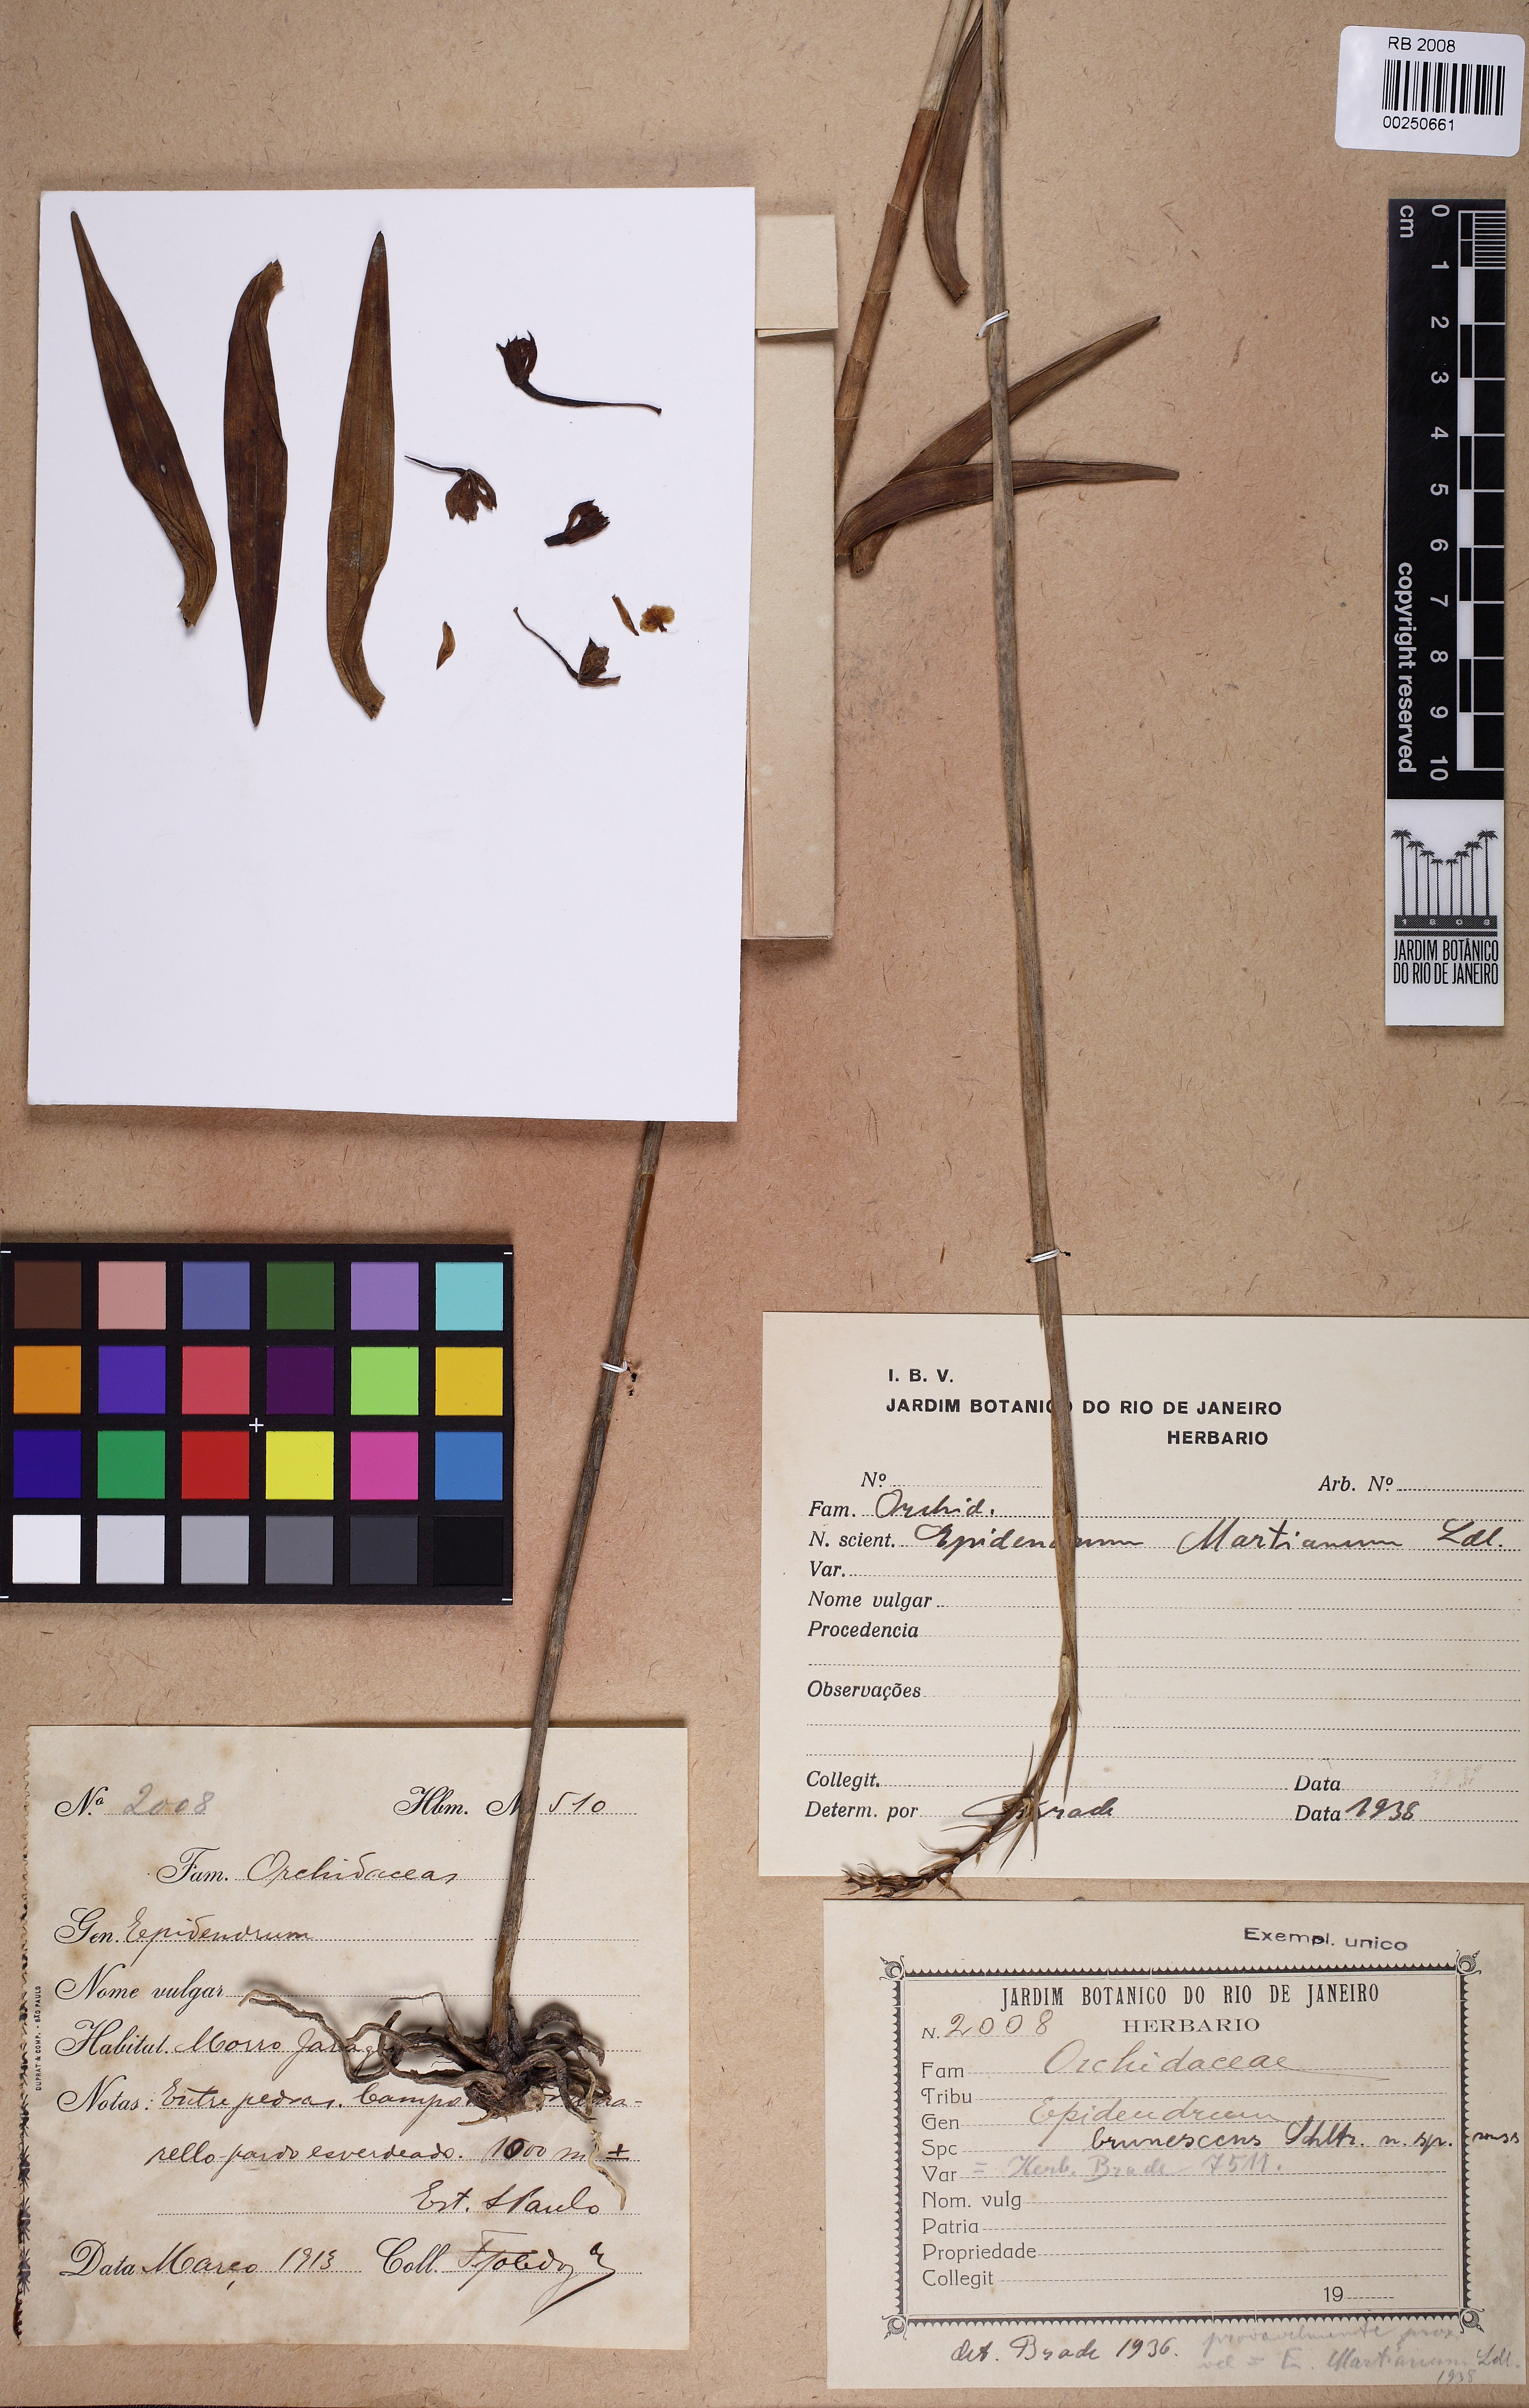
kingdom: Plantae
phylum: Tracheophyta
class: Liliopsida
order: Asparagales
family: Orchidaceae
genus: Epidendrum
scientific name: Epidendrum martianum
